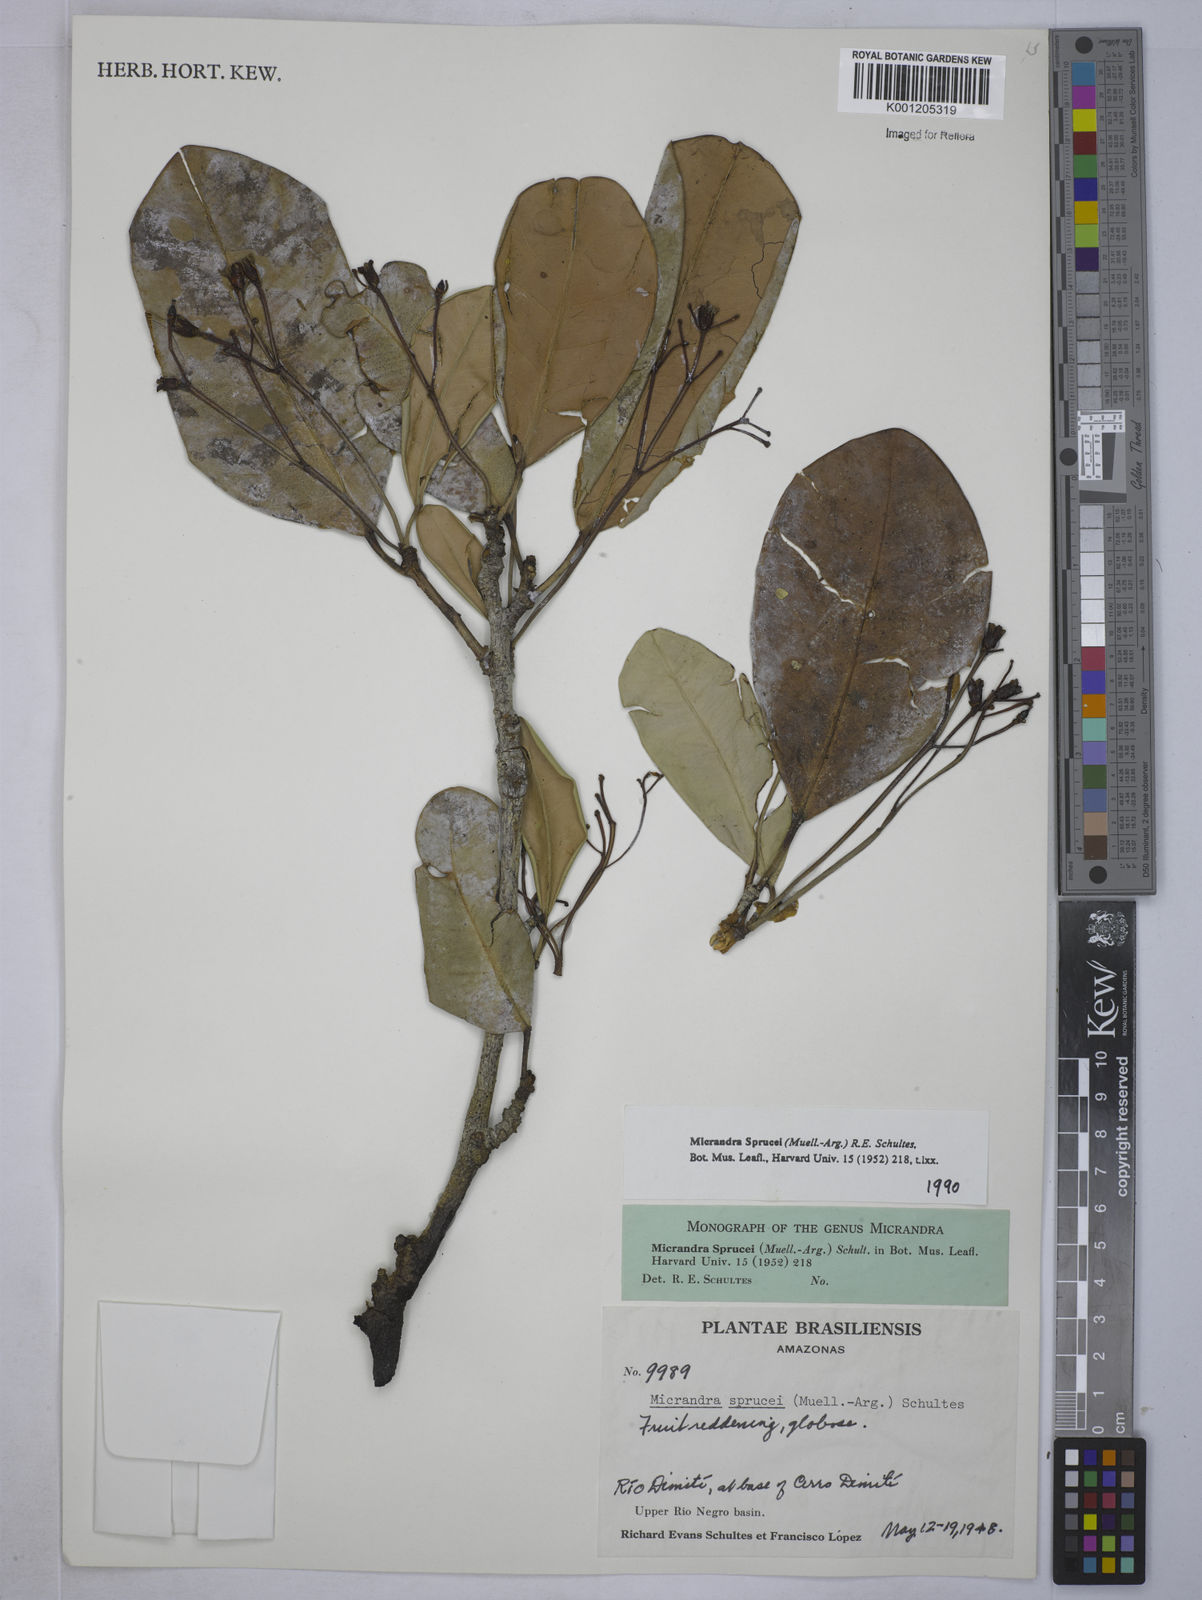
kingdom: Plantae
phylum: Tracheophyta
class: Magnoliopsida
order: Malpighiales
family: Euphorbiaceae
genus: Micrandra
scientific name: Micrandra spruceana
